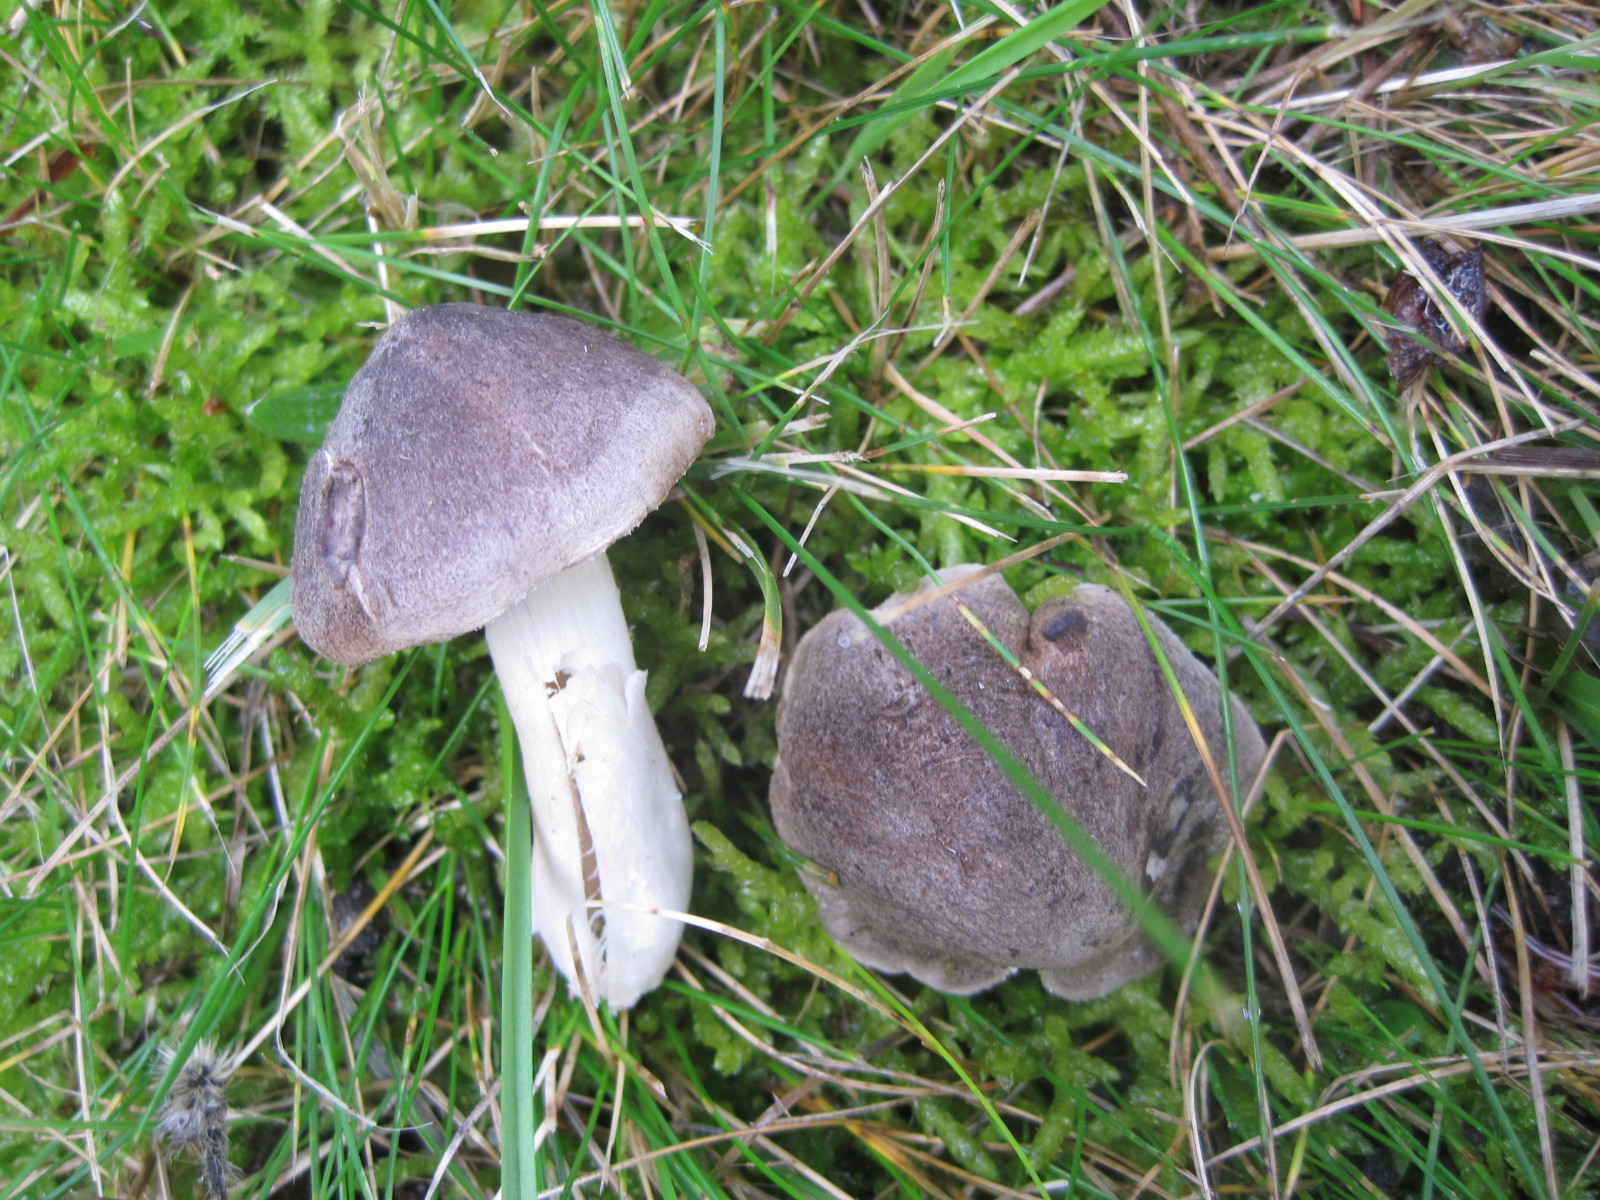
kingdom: Fungi
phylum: Basidiomycota
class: Agaricomycetes
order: Agaricales
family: Tricholomataceae
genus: Tricholoma
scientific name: Tricholoma terreum
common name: jordfarvet ridderhat
